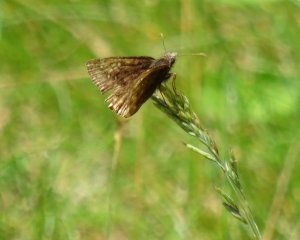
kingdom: Animalia
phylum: Arthropoda
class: Insecta
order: Lepidoptera
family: Hesperiidae
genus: Gesta
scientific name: Gesta
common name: Juvenal's Duskywing
